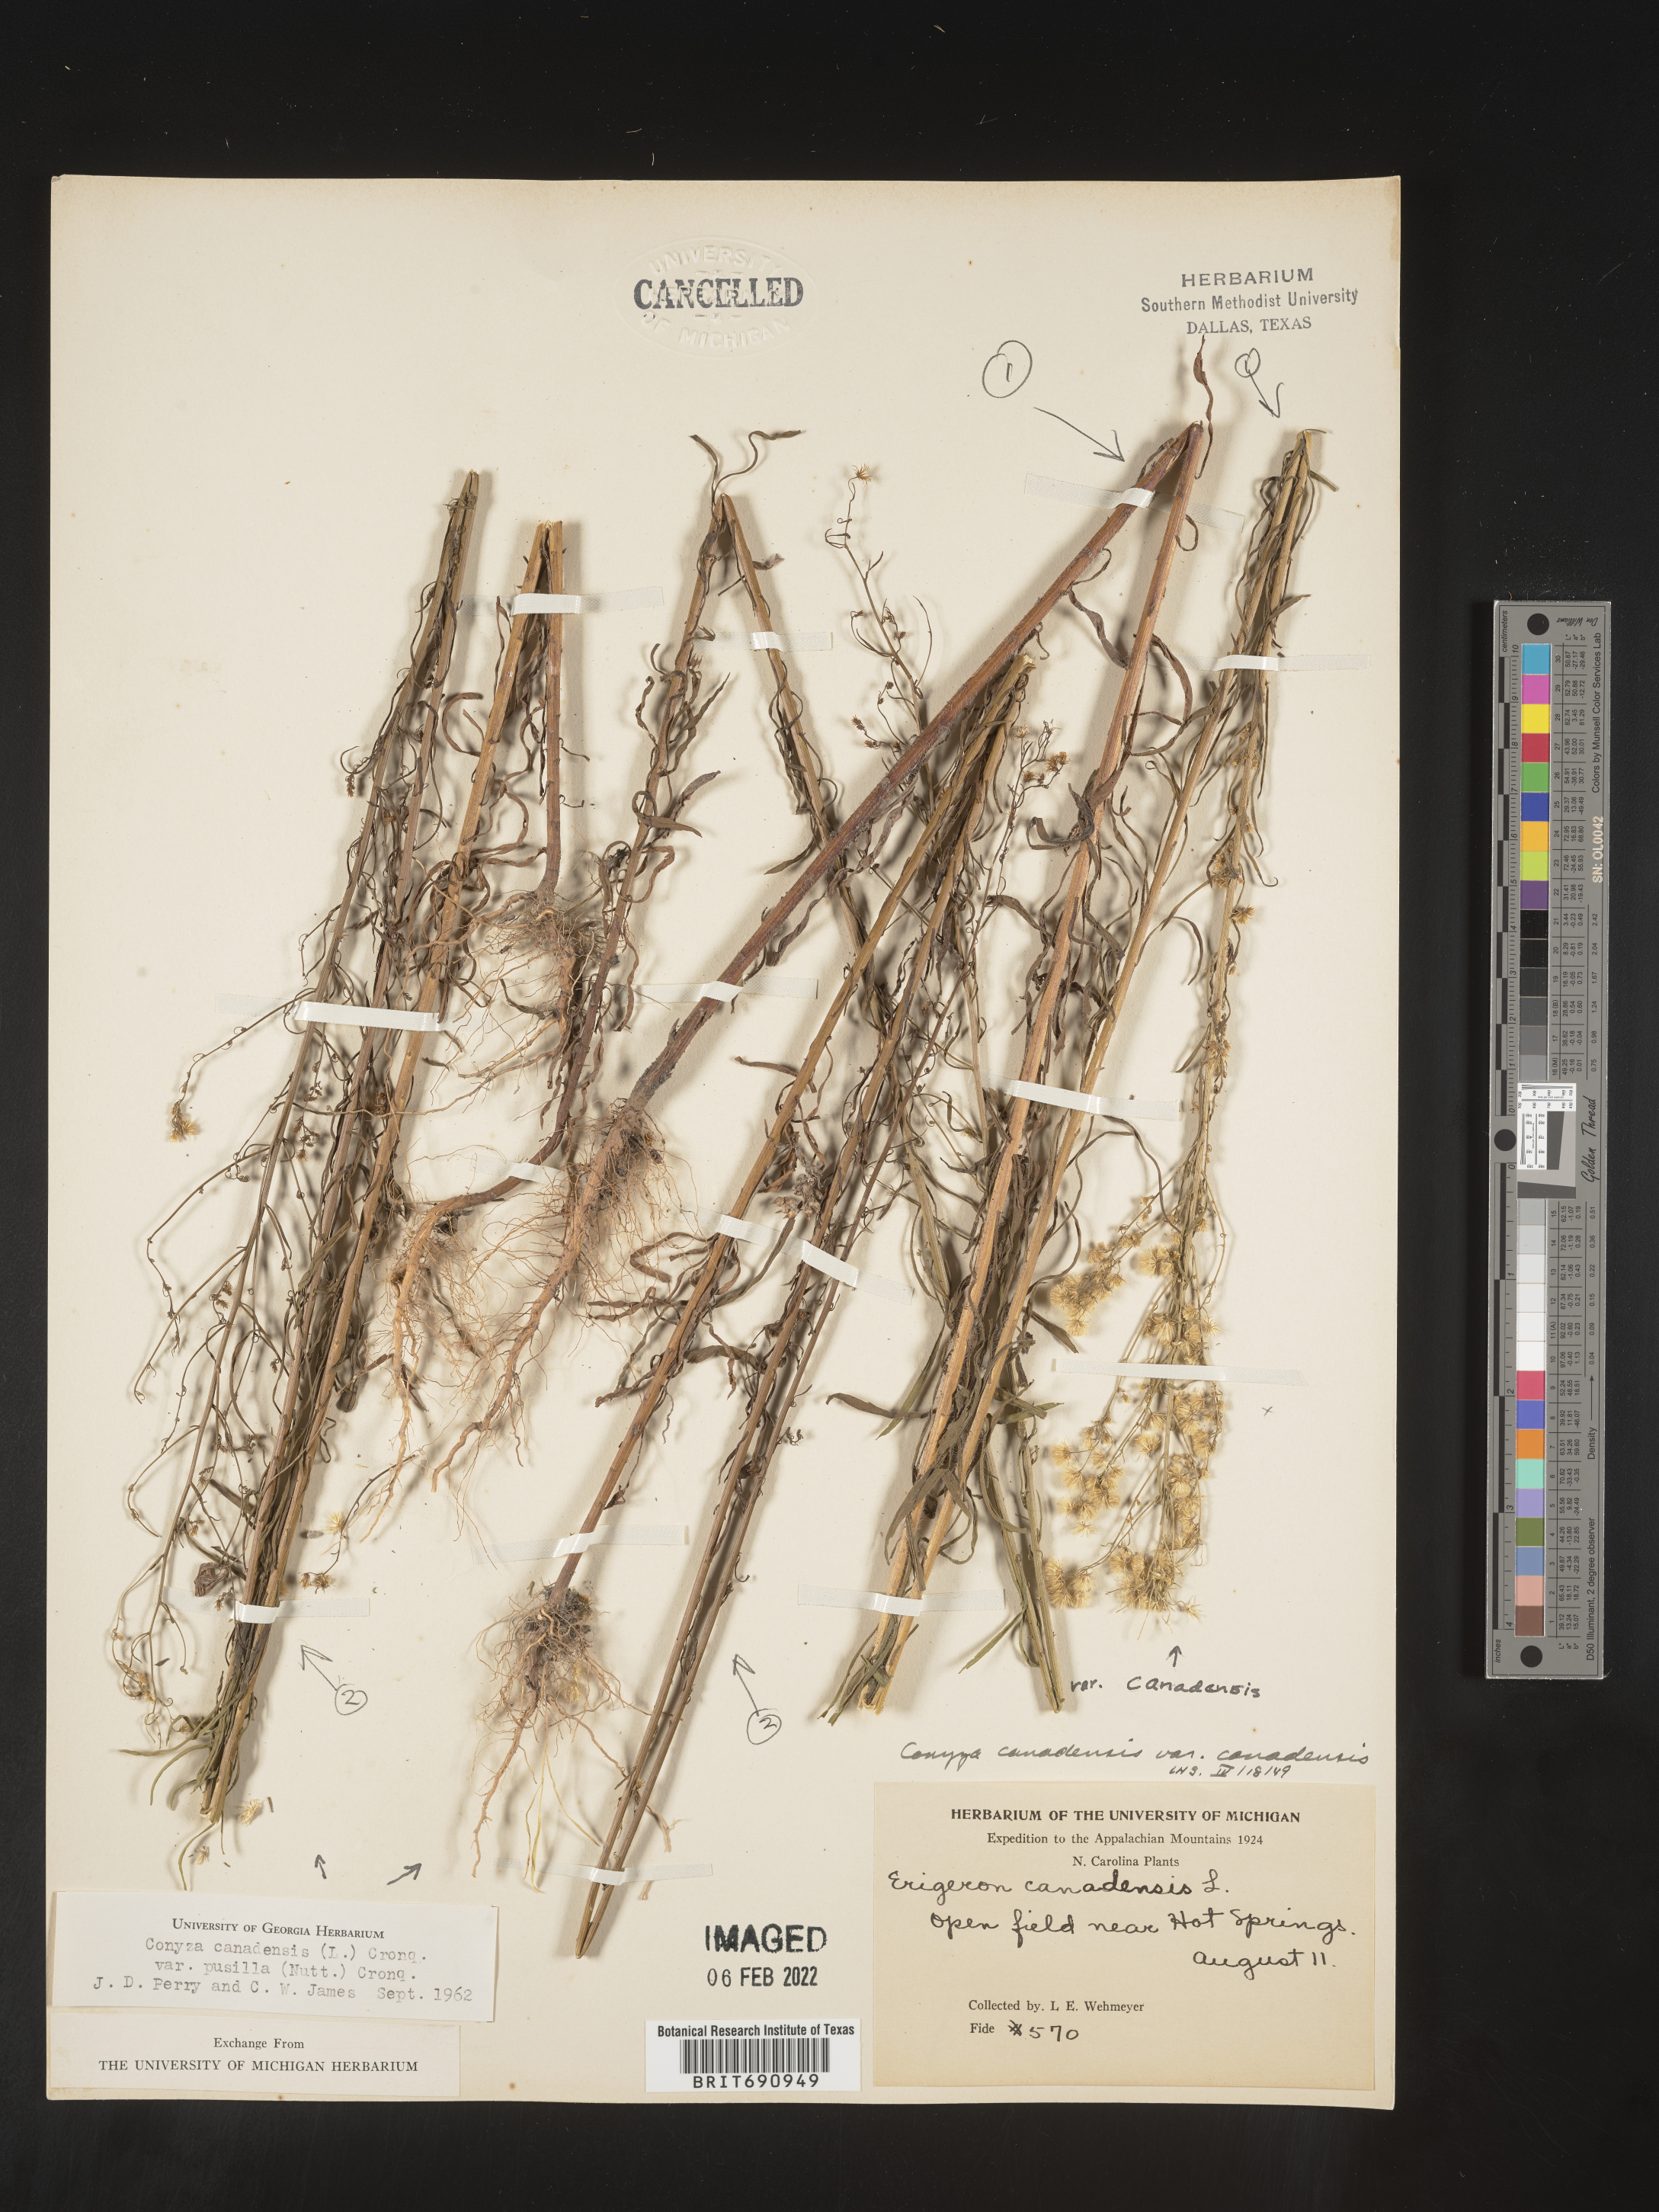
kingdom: Plantae
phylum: Tracheophyta
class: Magnoliopsida
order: Asterales
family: Asteraceae
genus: Erigeron
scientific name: Erigeron canadensis
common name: Canadian fleabane
